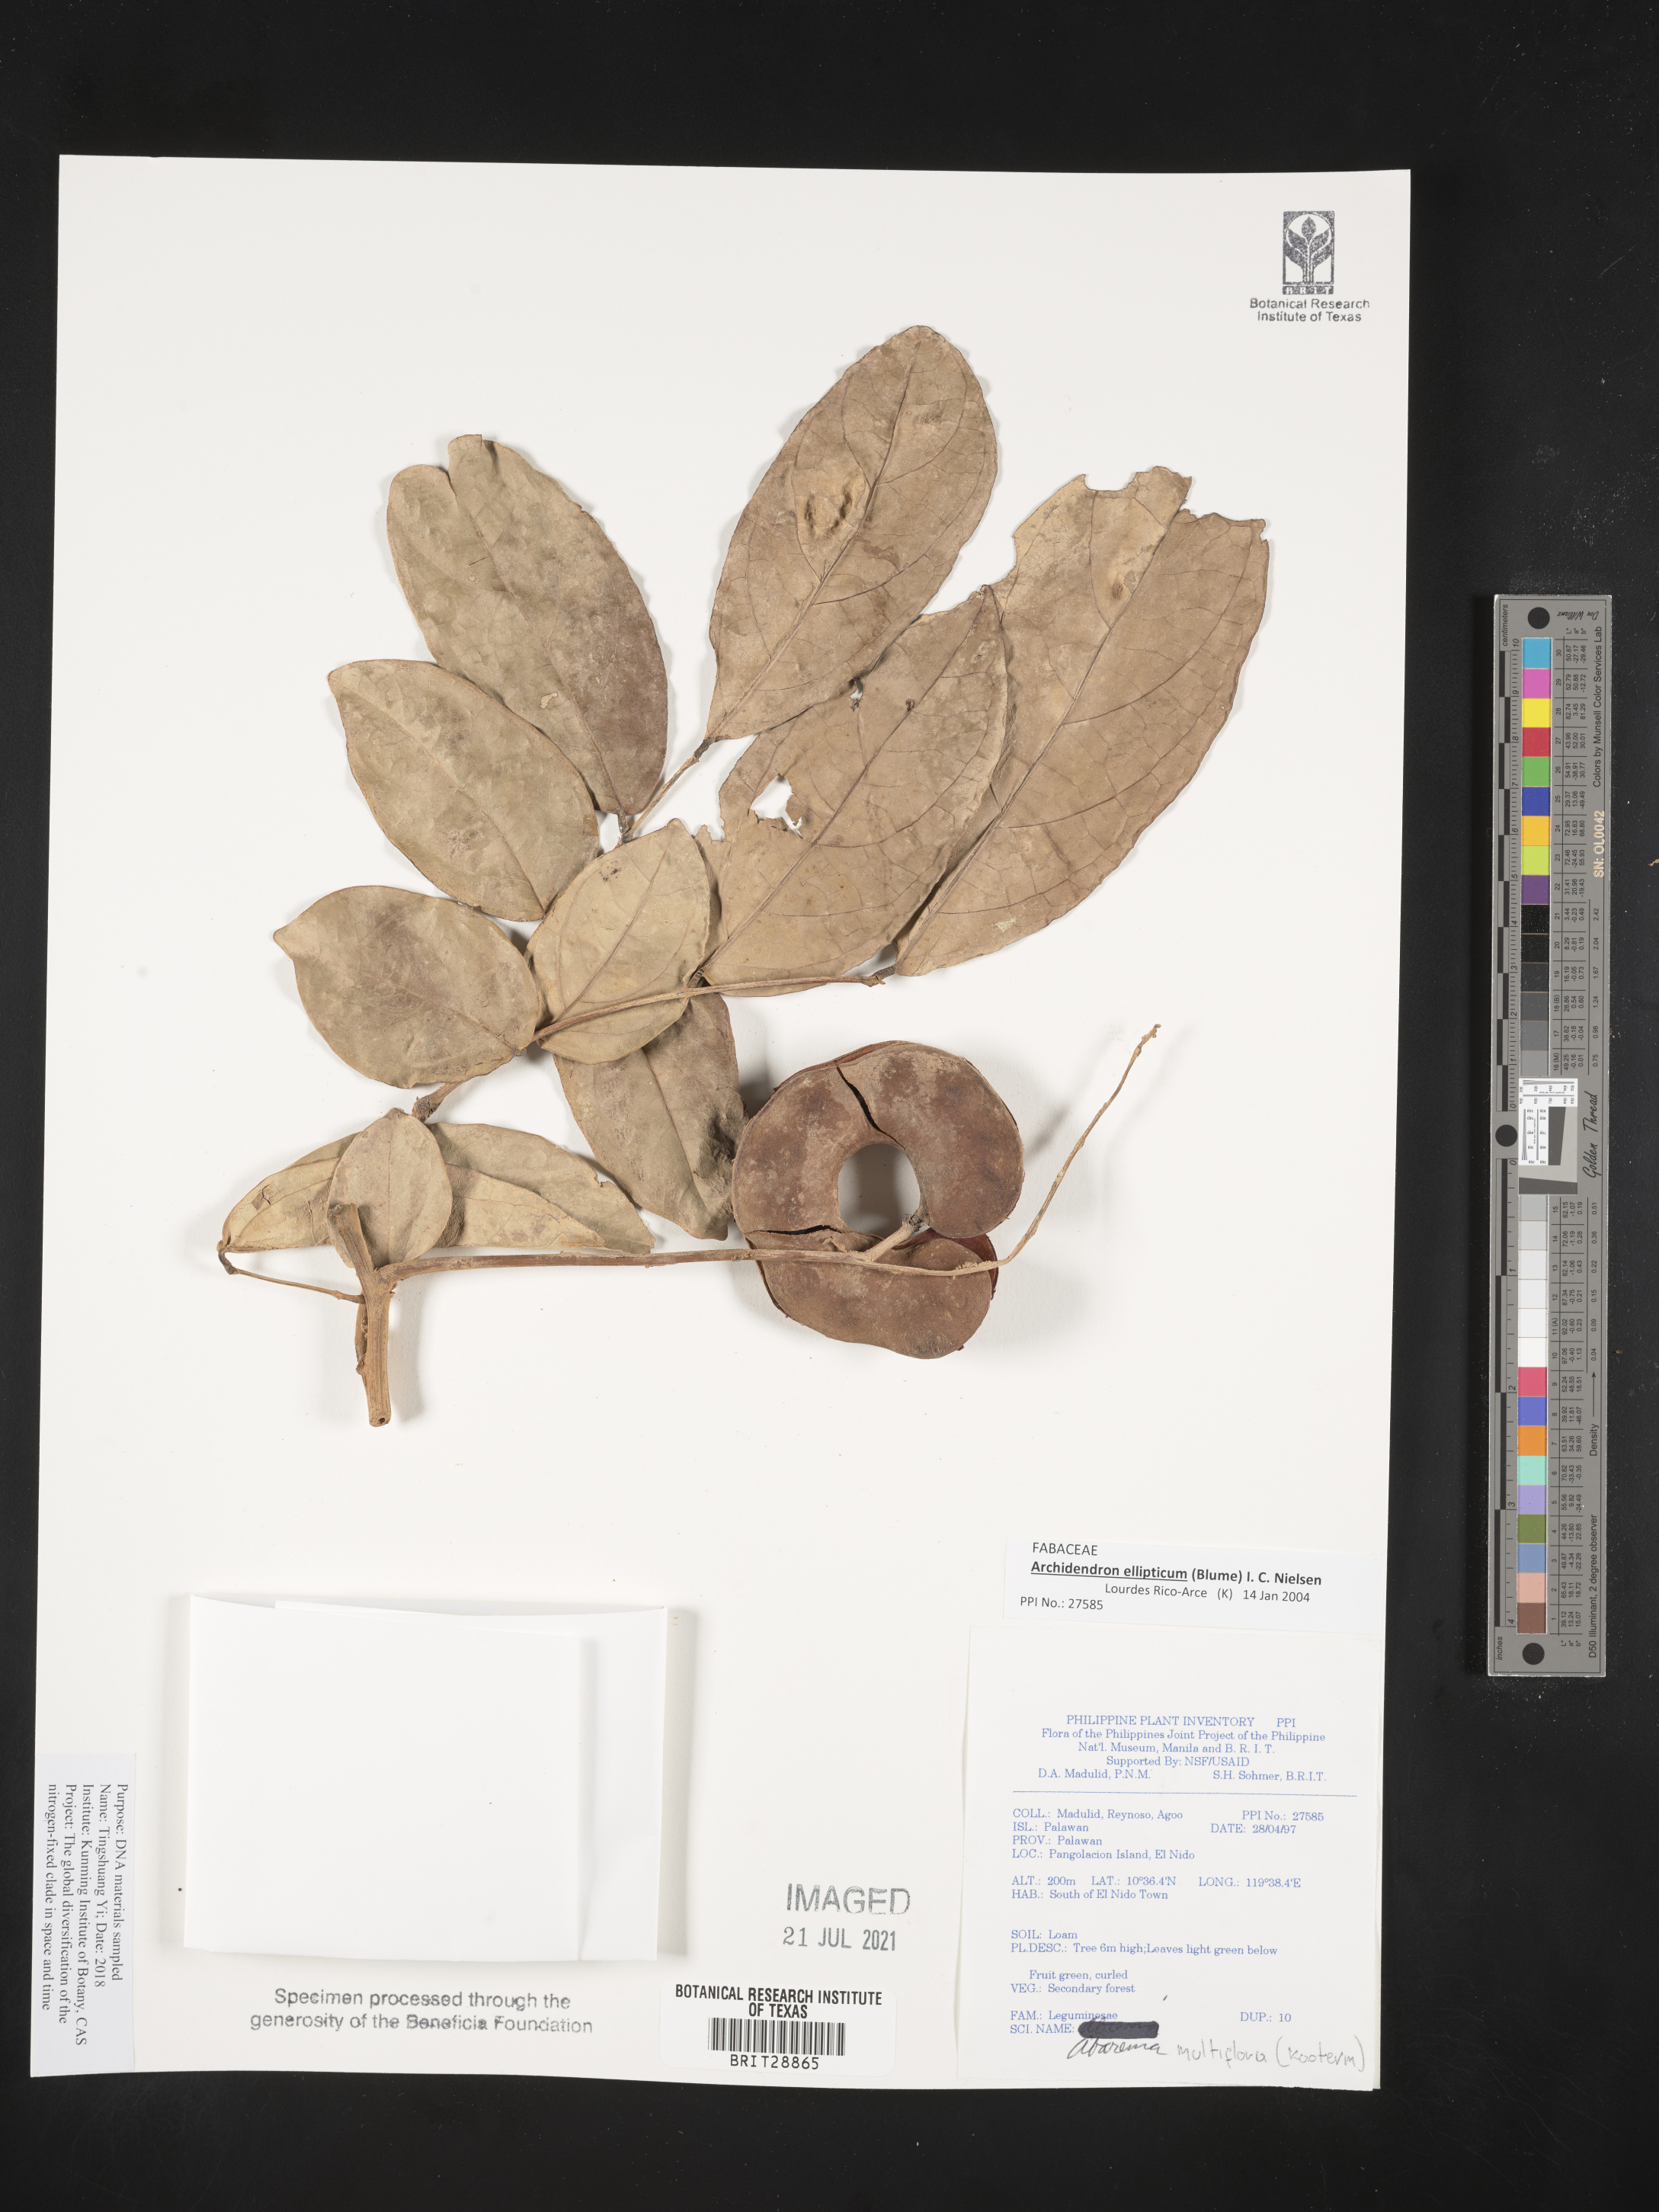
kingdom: Plantae
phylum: Tracheophyta
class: Magnoliopsida
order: Fabales
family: Fabaceae
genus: Archidendron
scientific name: Archidendron ellipticum
